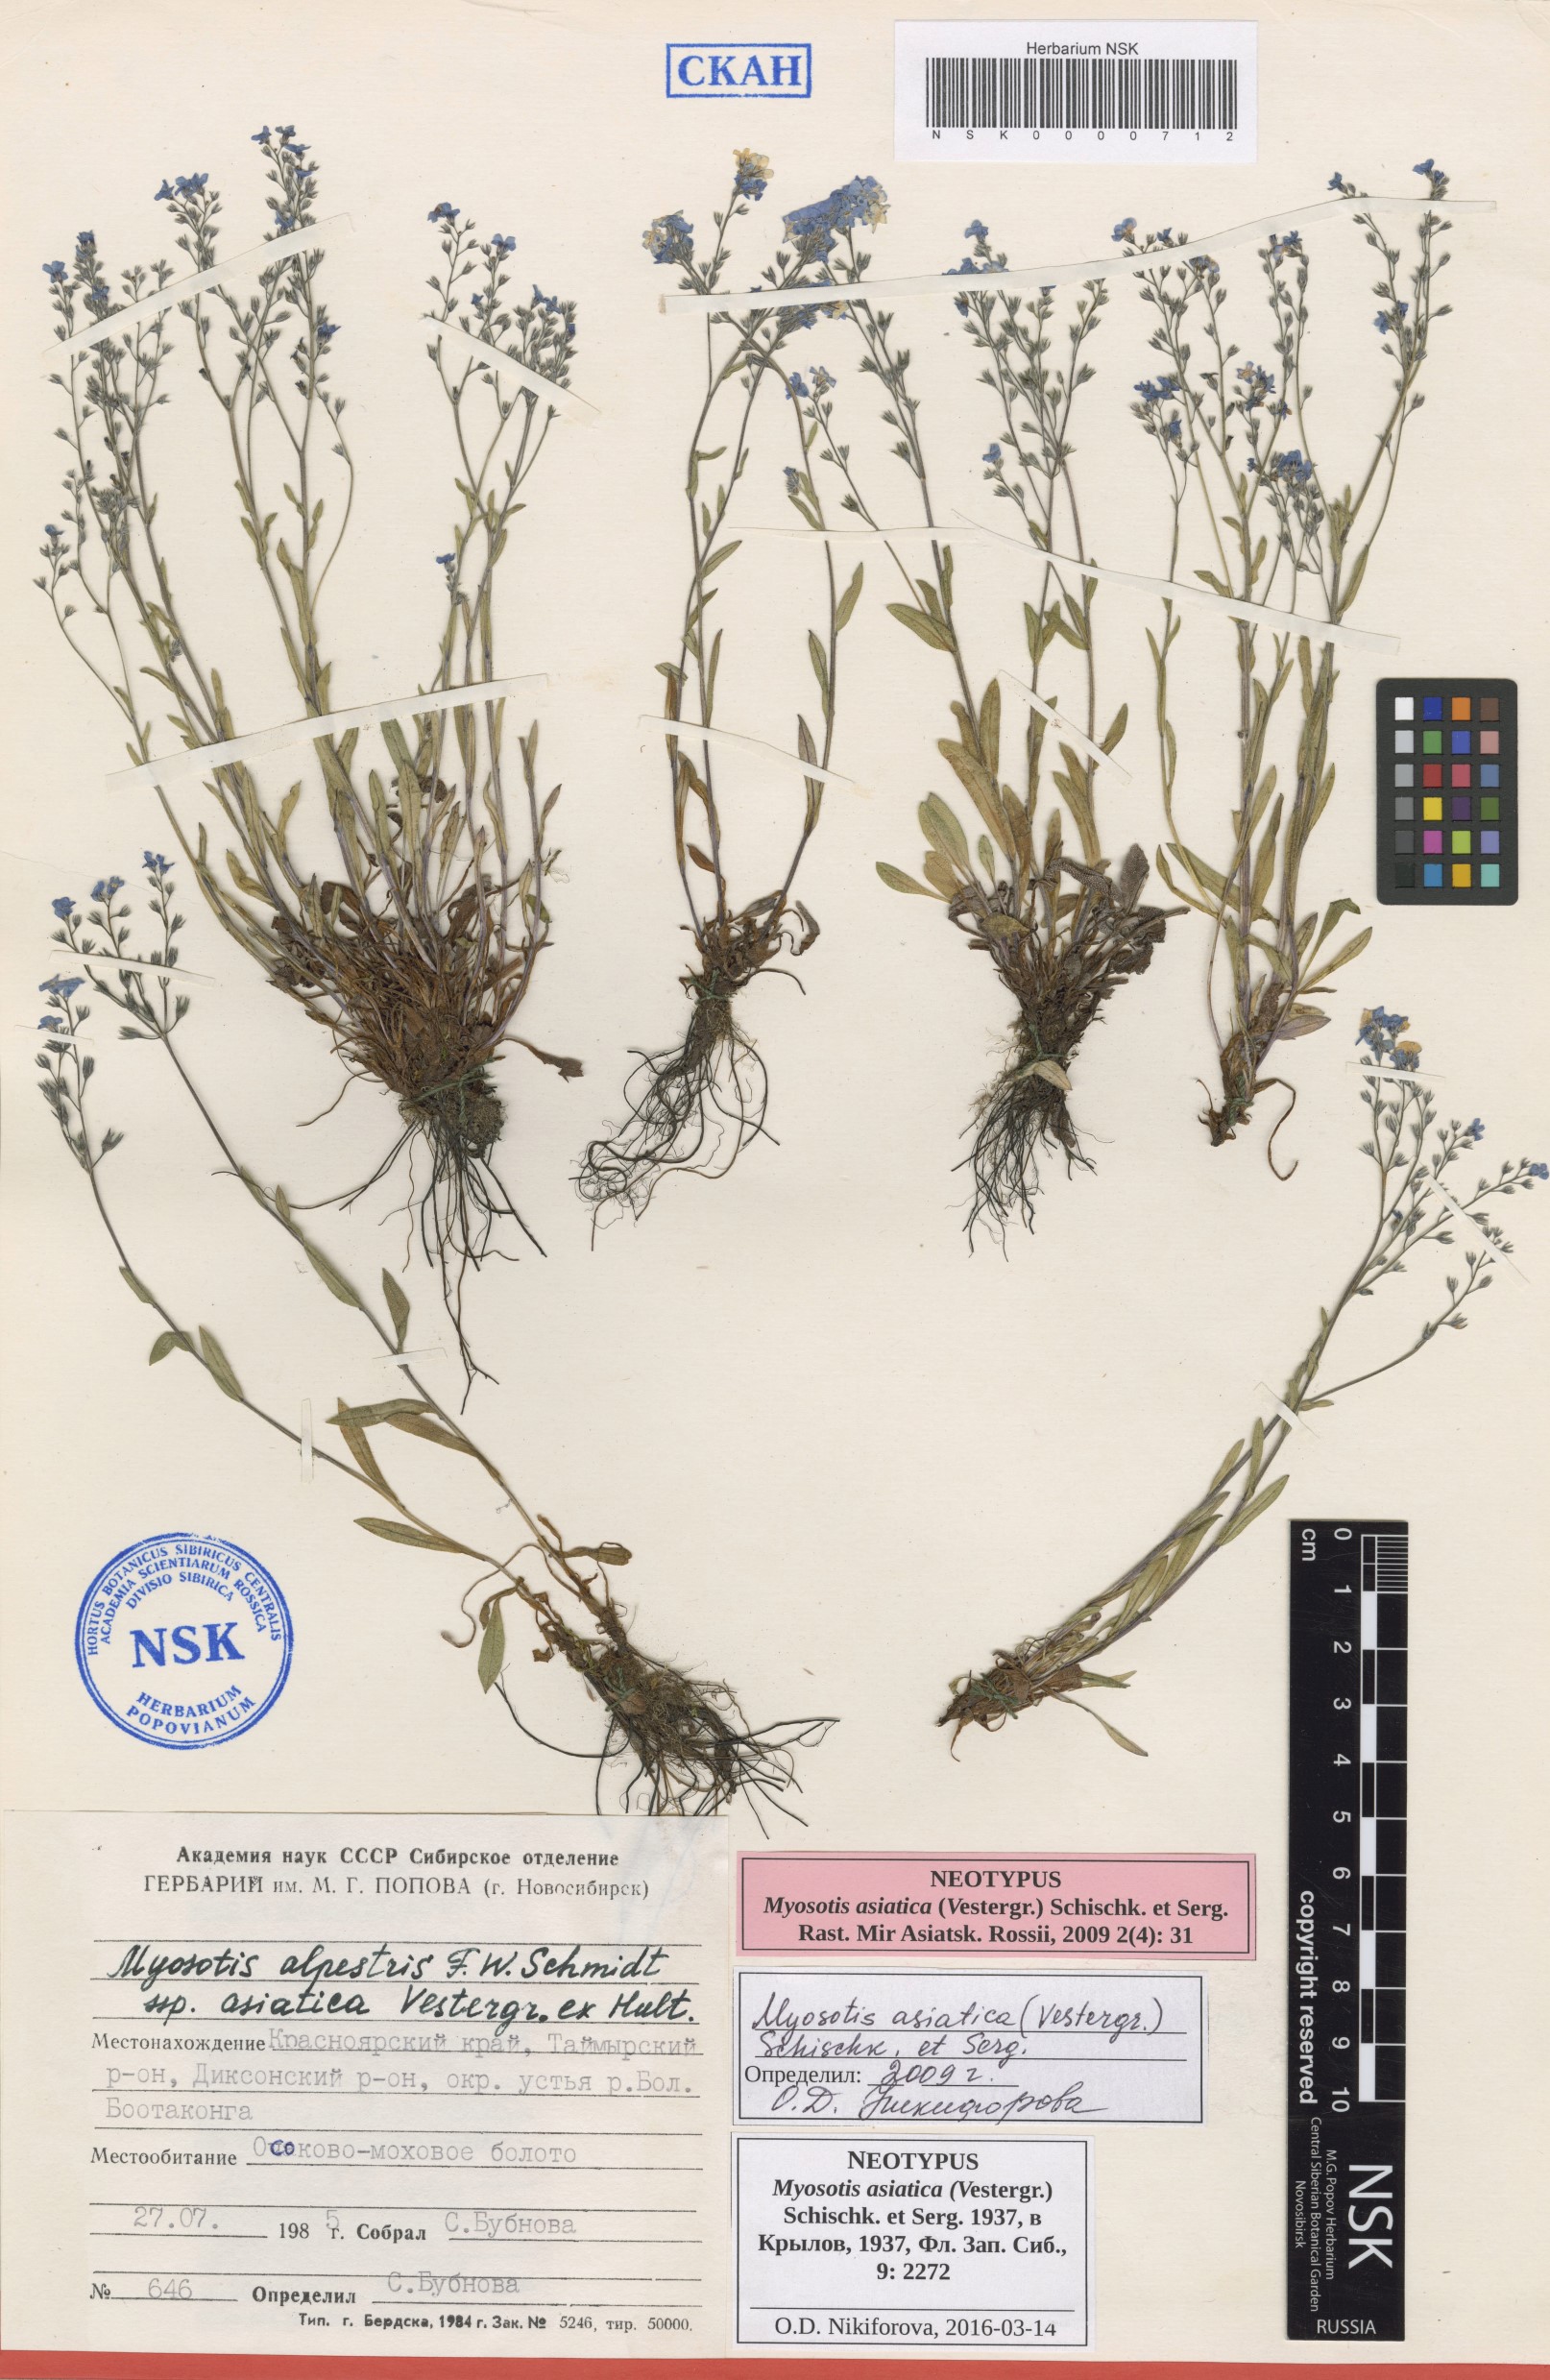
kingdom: Plantae
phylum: Tracheophyta
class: Magnoliopsida
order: Boraginales
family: Boraginaceae
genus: Myosotis
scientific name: Myosotis asiatica
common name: Asian forget-me-not
